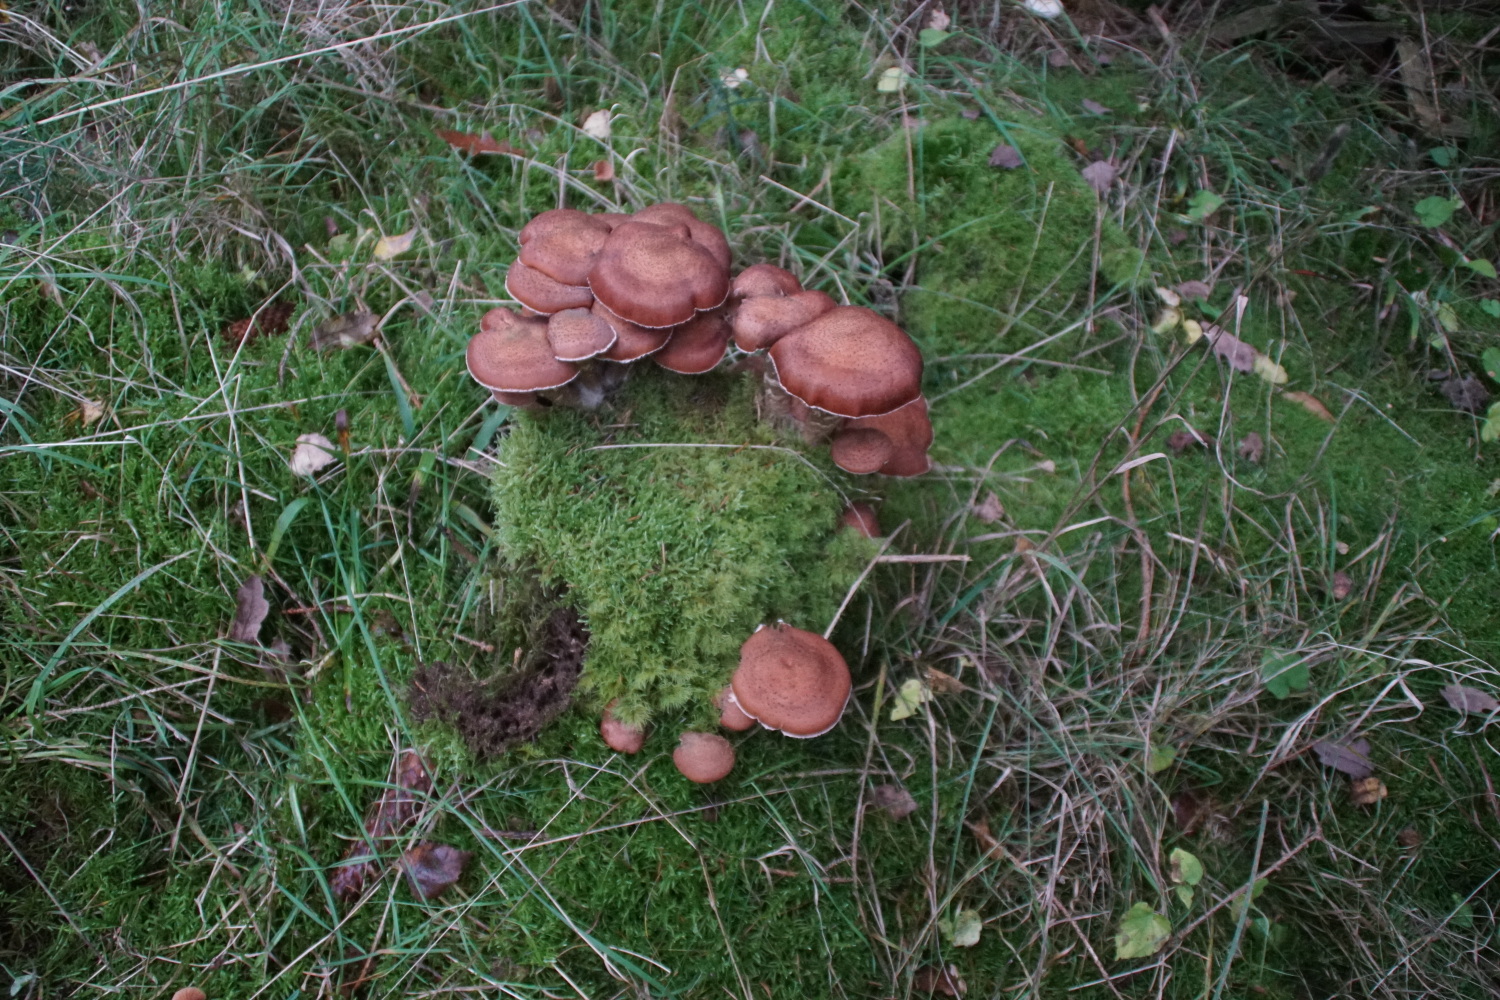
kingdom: Fungi
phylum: Basidiomycota
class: Agaricomycetes
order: Agaricales
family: Physalacriaceae
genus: Armillaria
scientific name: Armillaria ostoyae
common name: mørk honningsvamp
